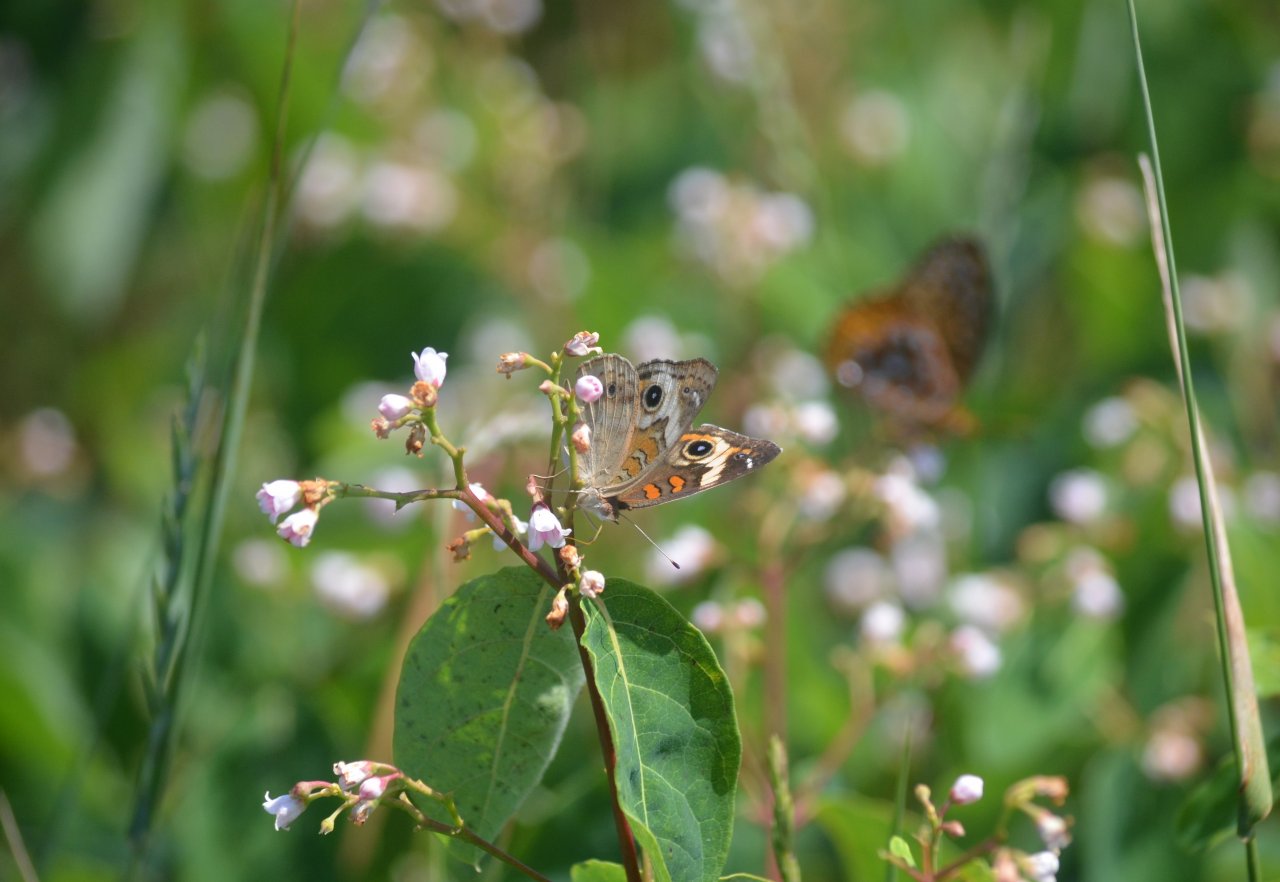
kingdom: Animalia
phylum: Arthropoda
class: Insecta
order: Lepidoptera
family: Nymphalidae
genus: Junonia
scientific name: Junonia coenia
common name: Common Buckeye
